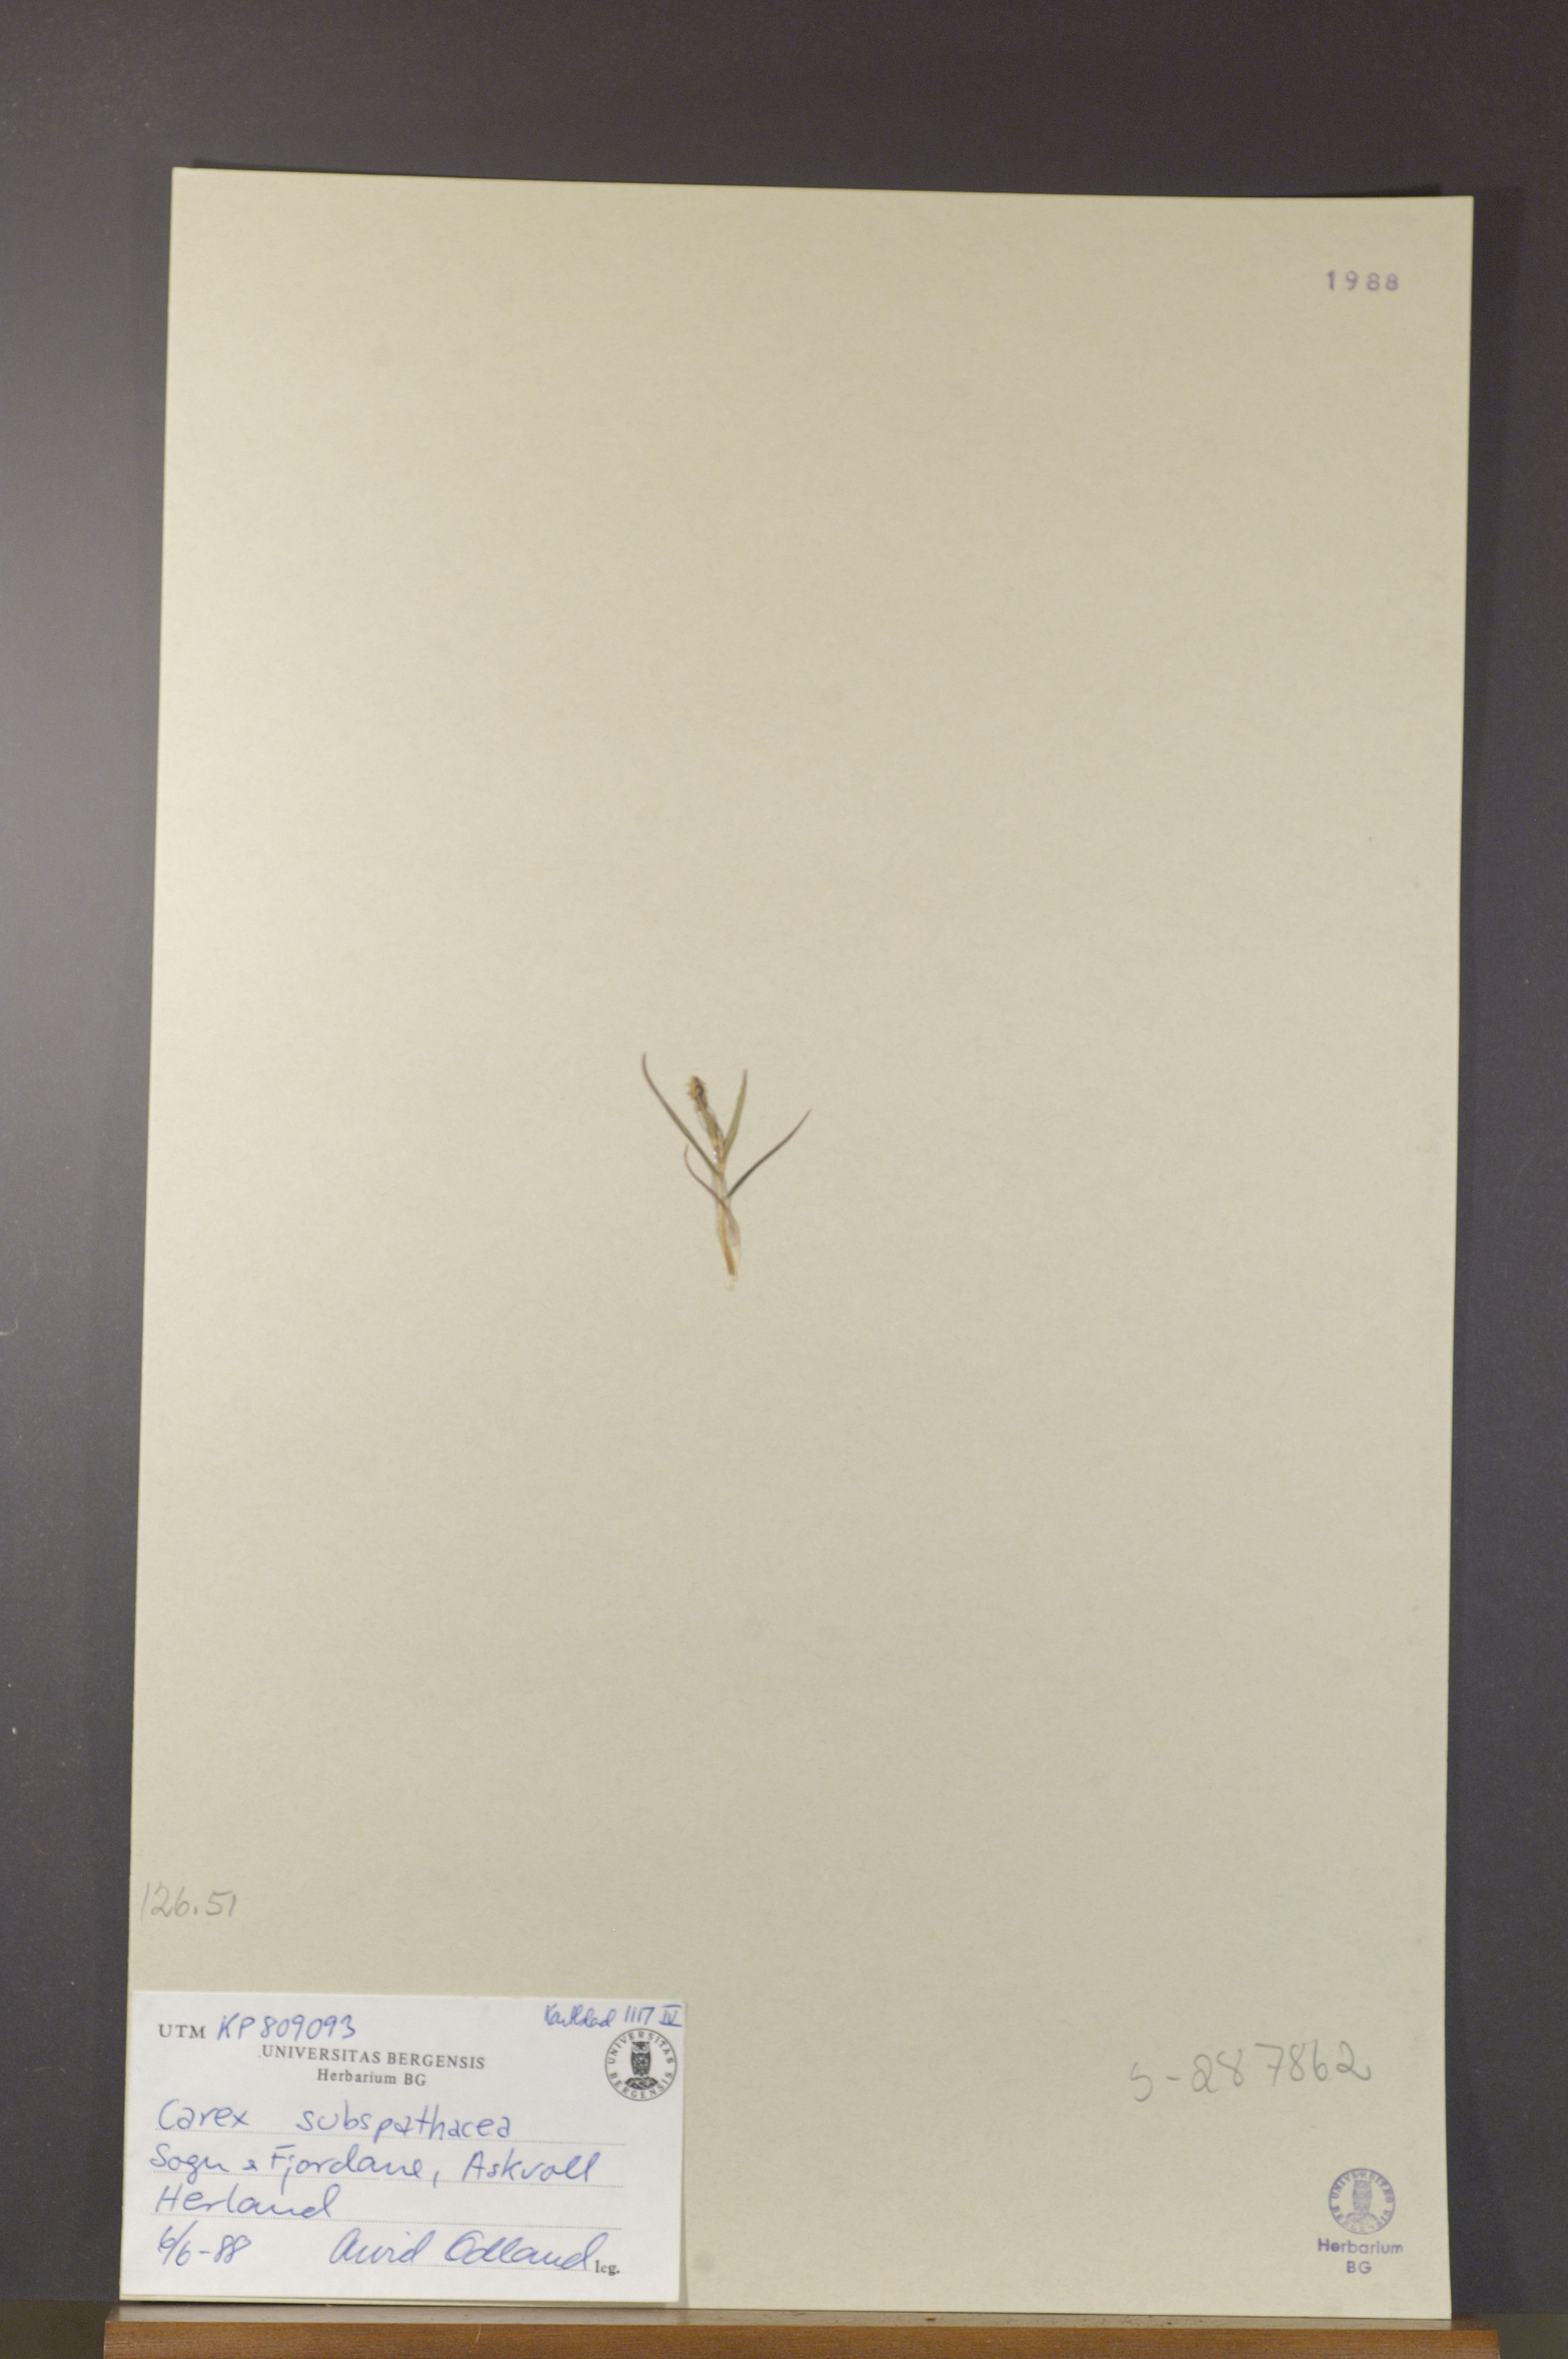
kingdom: Plantae
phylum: Tracheophyta
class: Liliopsida
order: Poales
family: Cyperaceae
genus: Carex
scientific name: Carex subspathacea
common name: Hoppner's sedge
